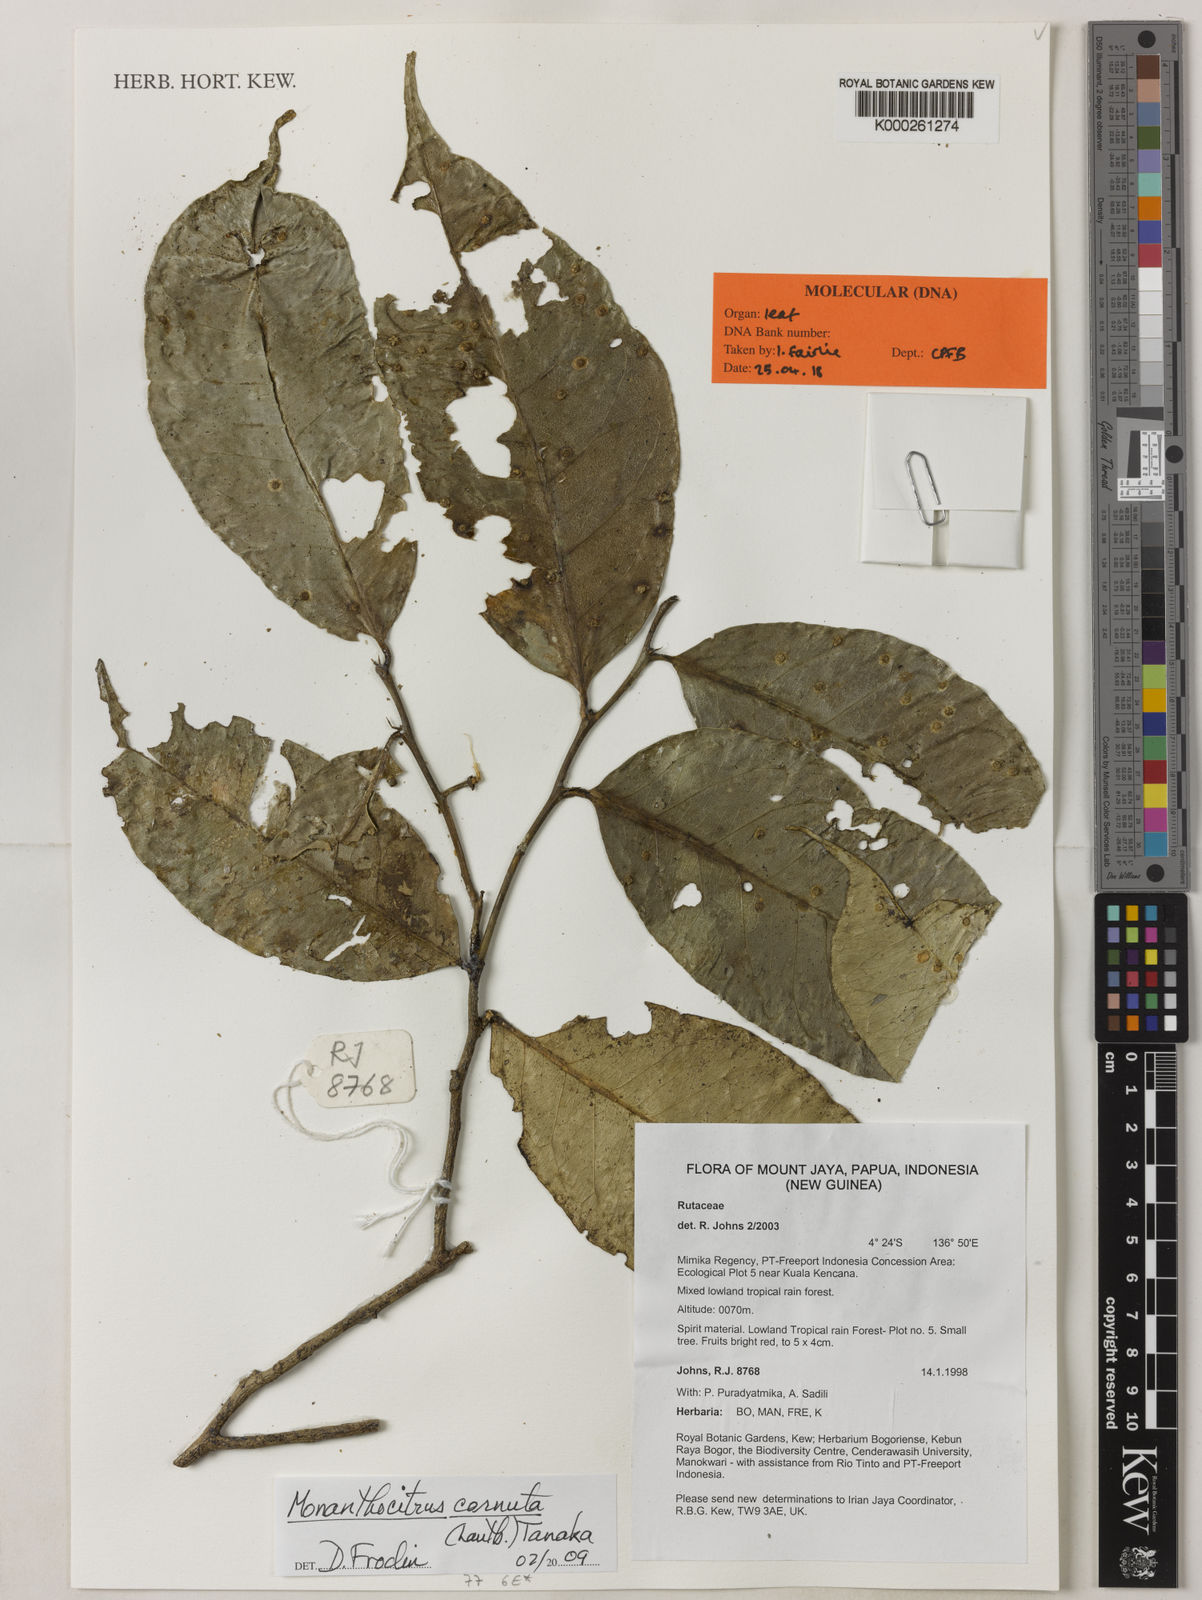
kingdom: Plantae
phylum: Tracheophyta
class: Magnoliopsida
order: Sapindales
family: Rutaceae
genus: Monanthocitrus
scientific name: Monanthocitrus cornuta
